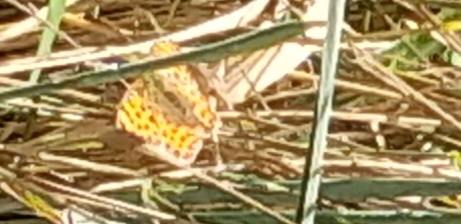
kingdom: Animalia
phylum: Arthropoda
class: Insecta
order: Lepidoptera
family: Nymphalidae
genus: Issoria
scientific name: Issoria lathonia
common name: Storplettet perlemorsommerfugl
